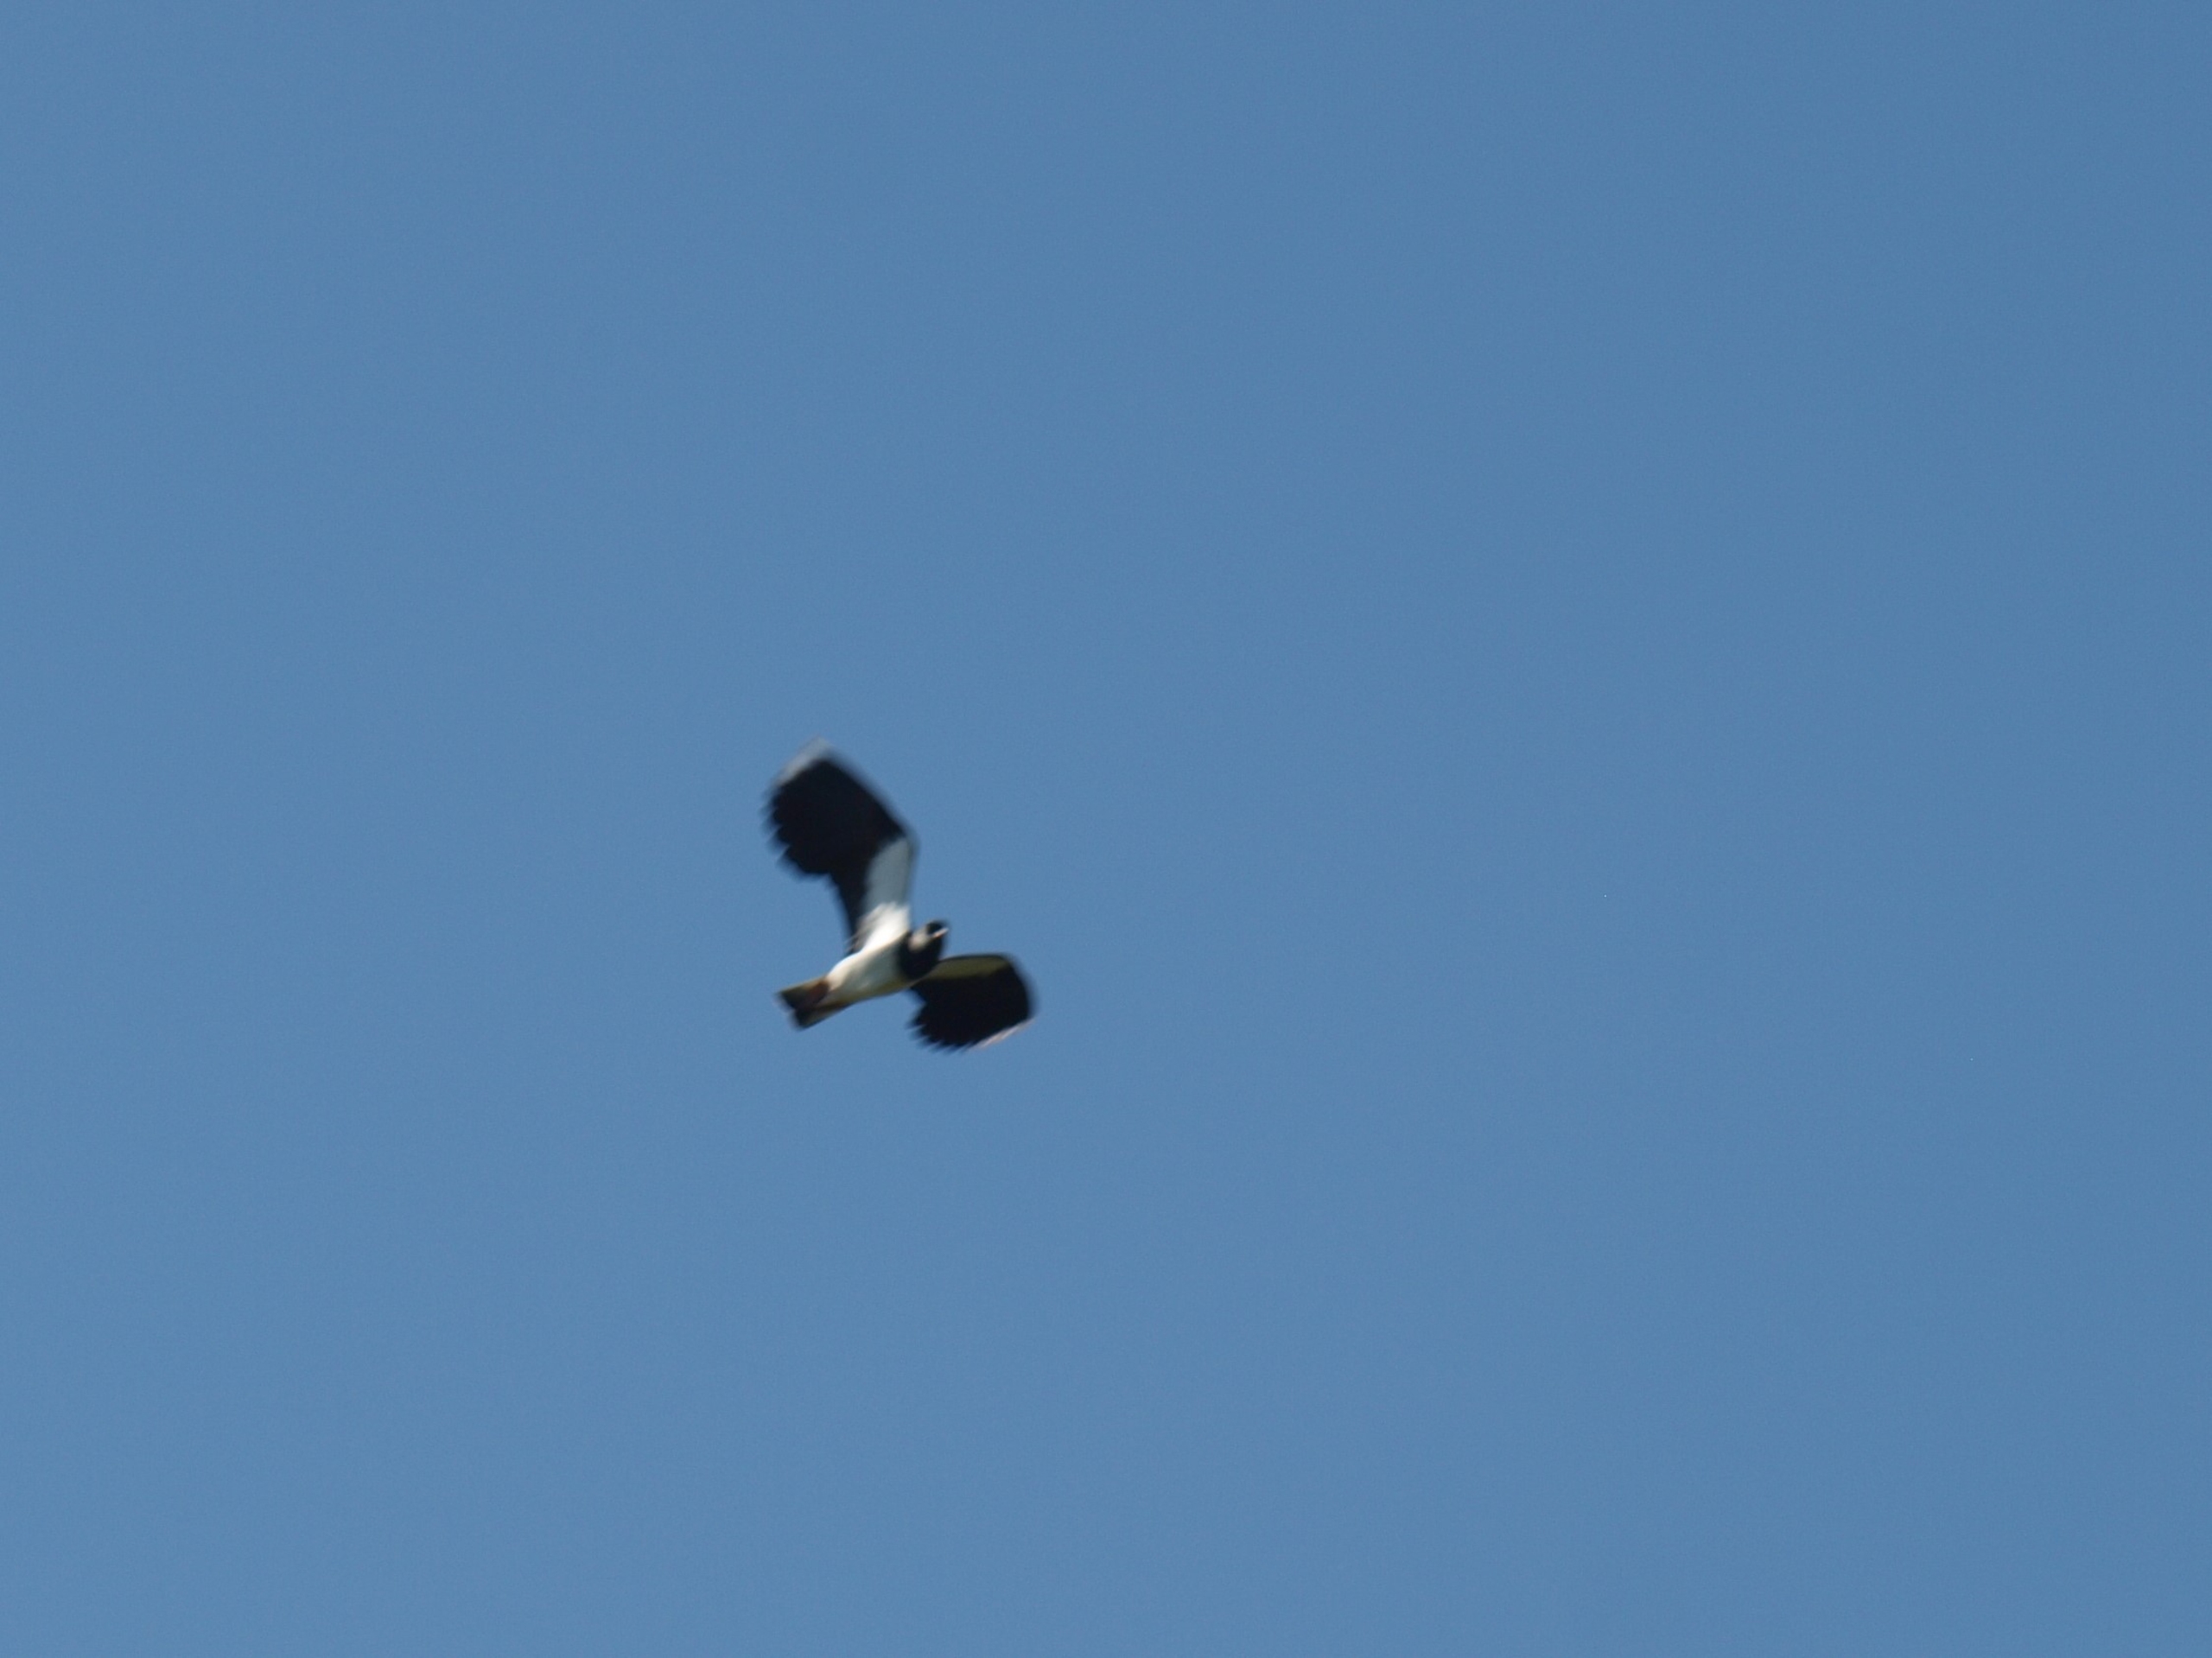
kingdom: Animalia
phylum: Chordata
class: Aves
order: Charadriiformes
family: Charadriidae
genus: Vanellus
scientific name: Vanellus vanellus
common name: Vibe
